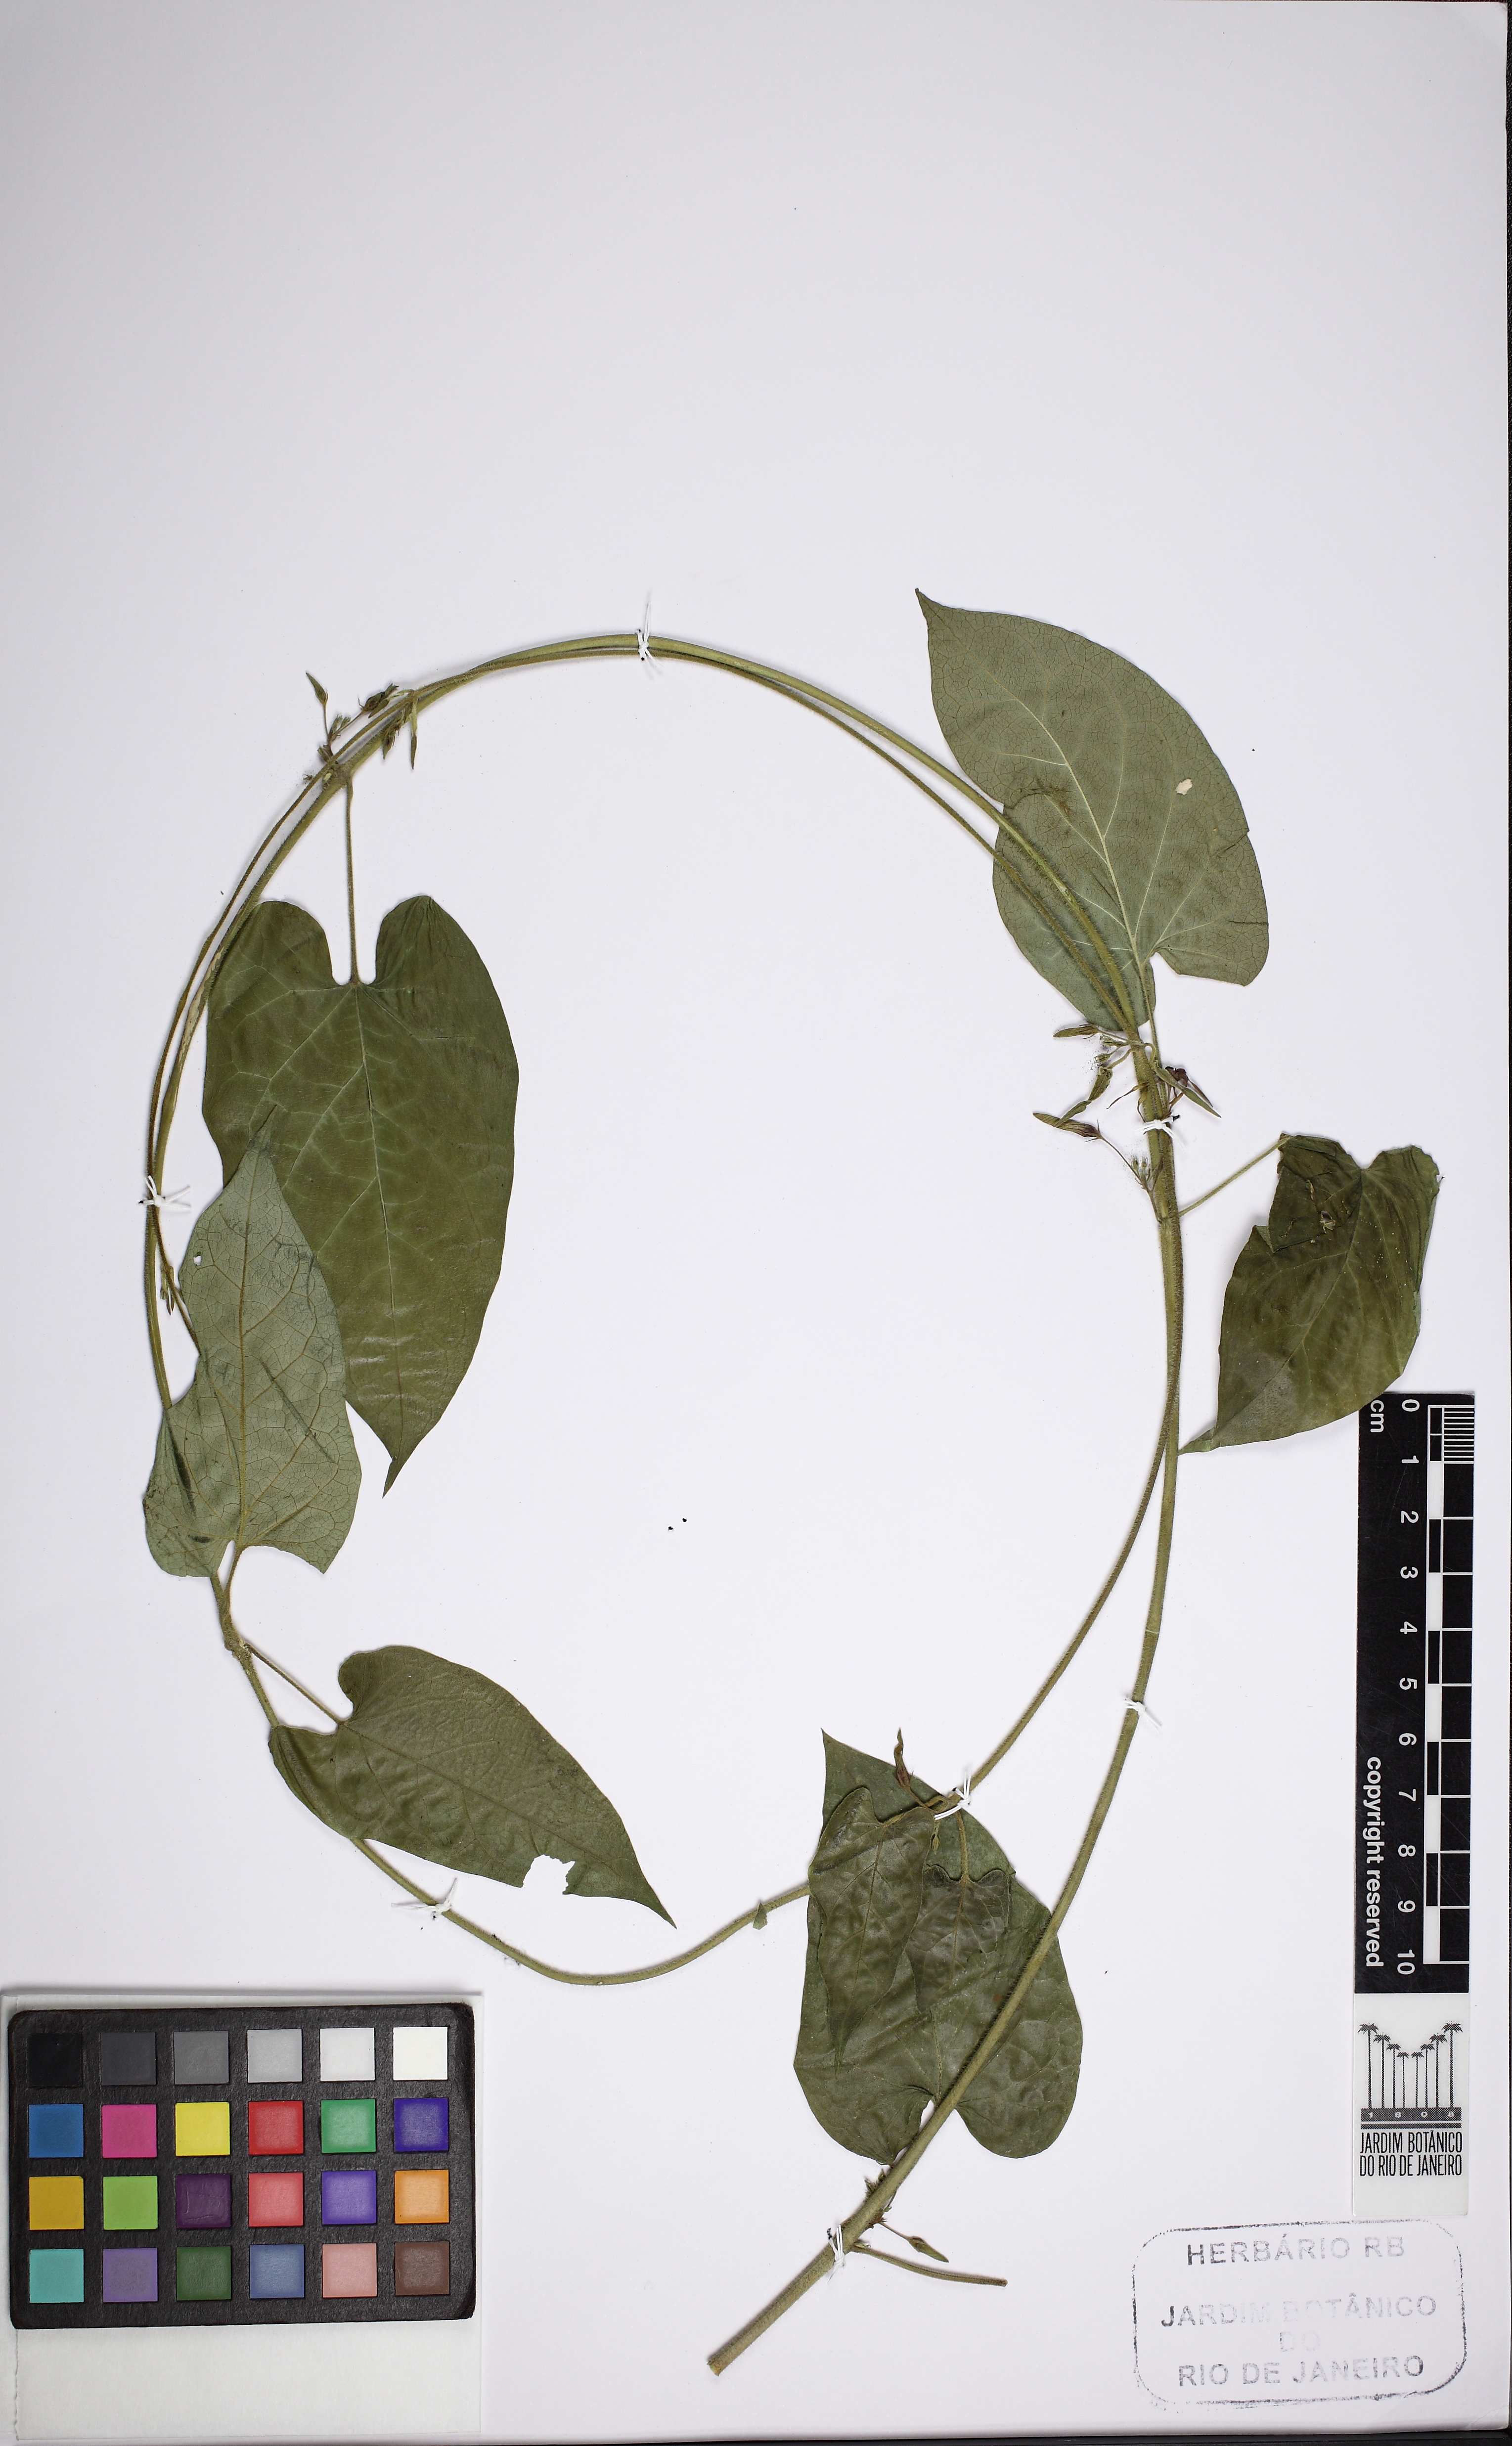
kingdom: Plantae
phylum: Tracheophyta
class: Magnoliopsida
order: Gentianales
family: Apocynaceae
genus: Oxypetalum
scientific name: Oxypetalum wightianum
